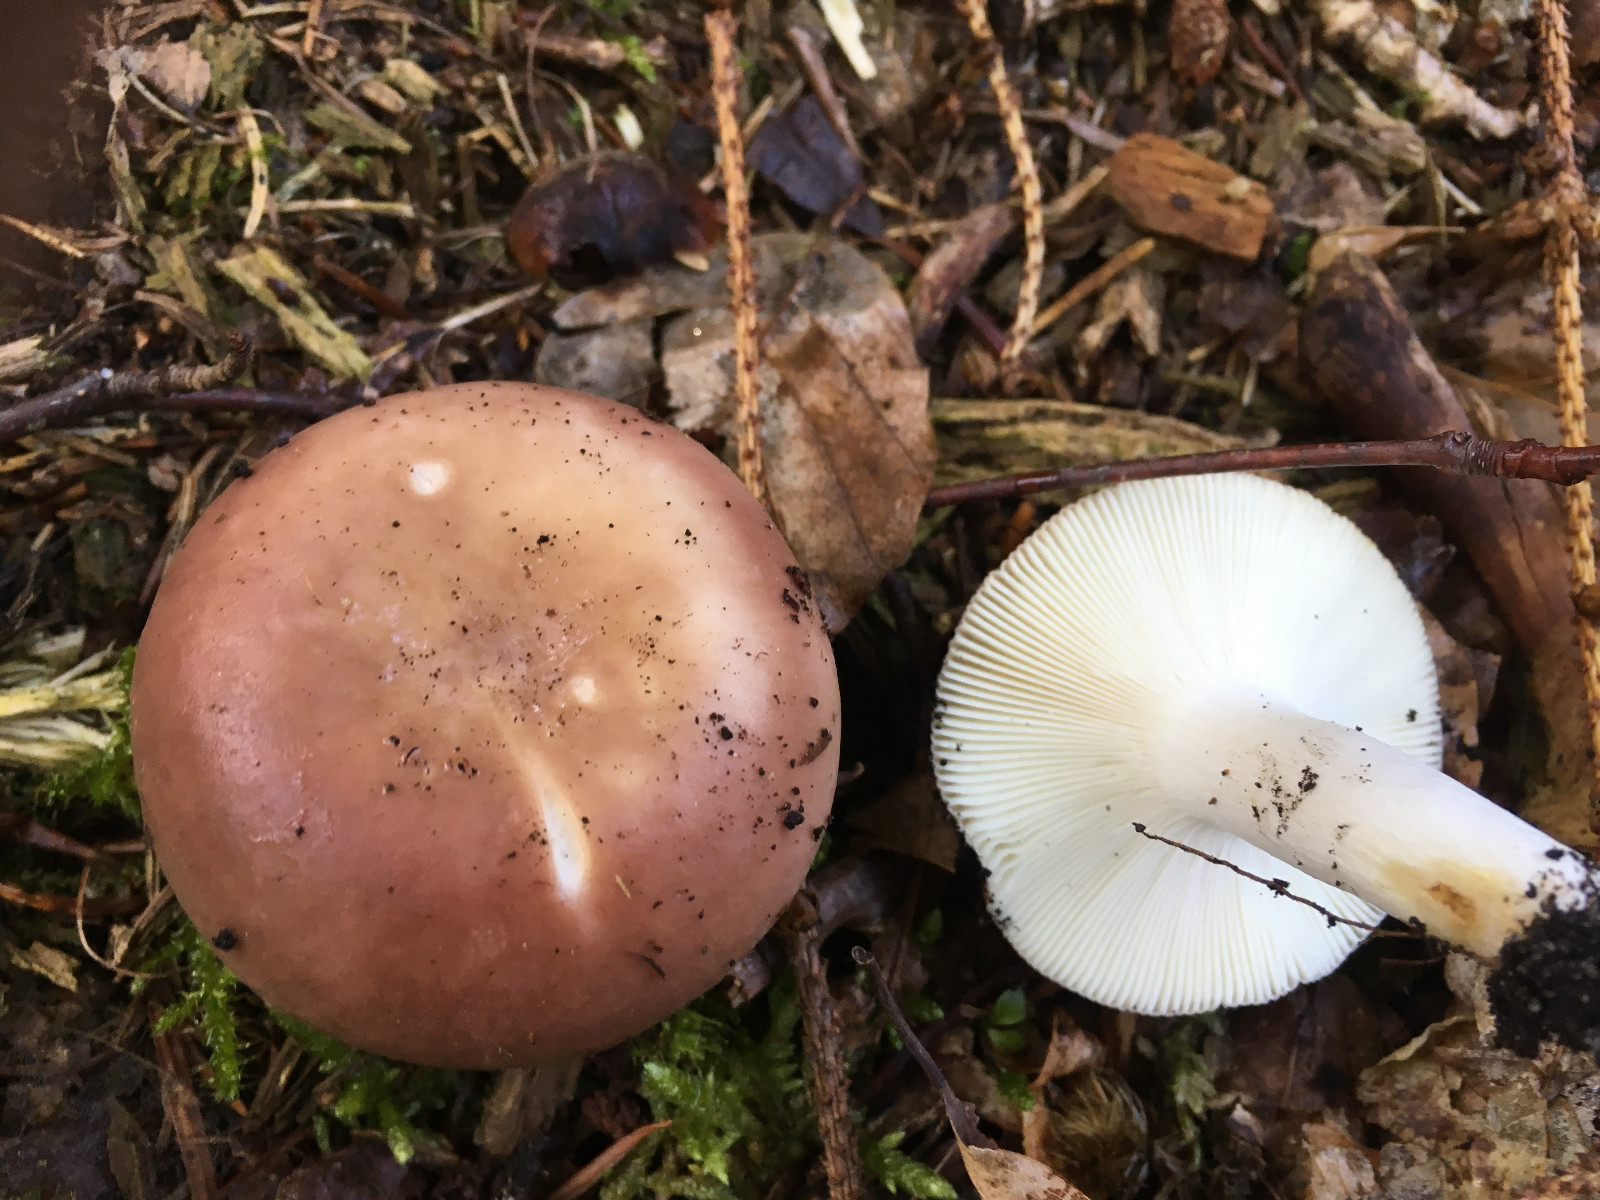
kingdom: Fungi
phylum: Basidiomycota
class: Agaricomycetes
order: Russulales
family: Russulaceae
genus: Russula
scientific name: Russula vesca
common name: spiselig skørhat
